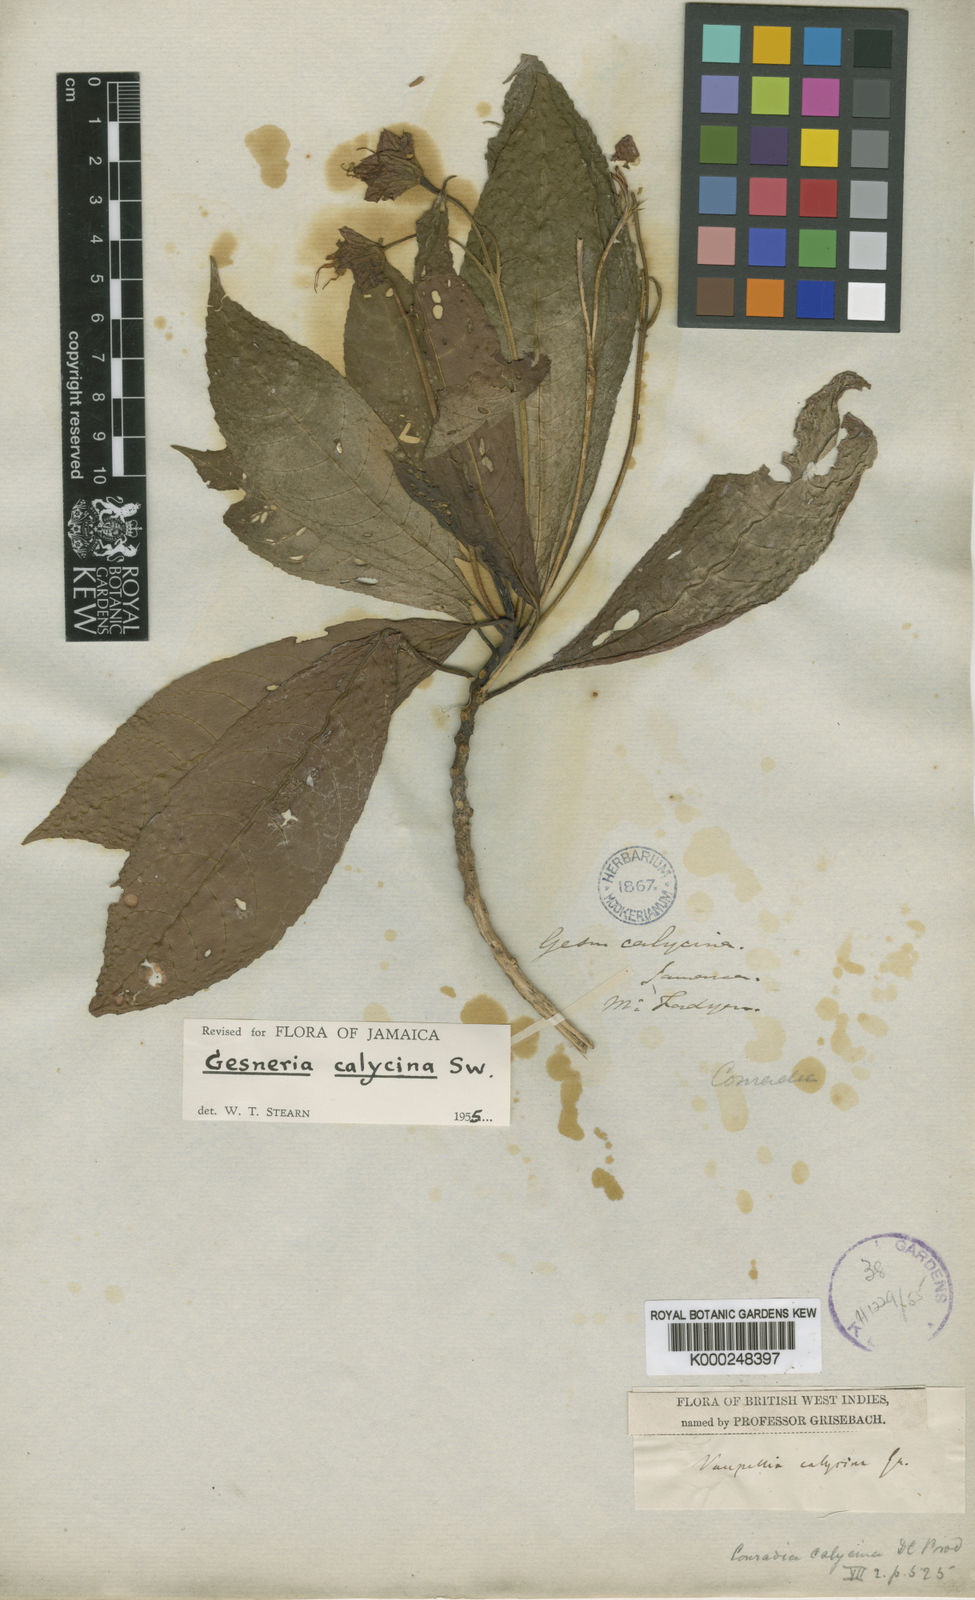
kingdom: Plantae
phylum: Tracheophyta
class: Magnoliopsida
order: Lamiales
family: Gesneriaceae
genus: Gesneria
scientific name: Gesneria calycina
